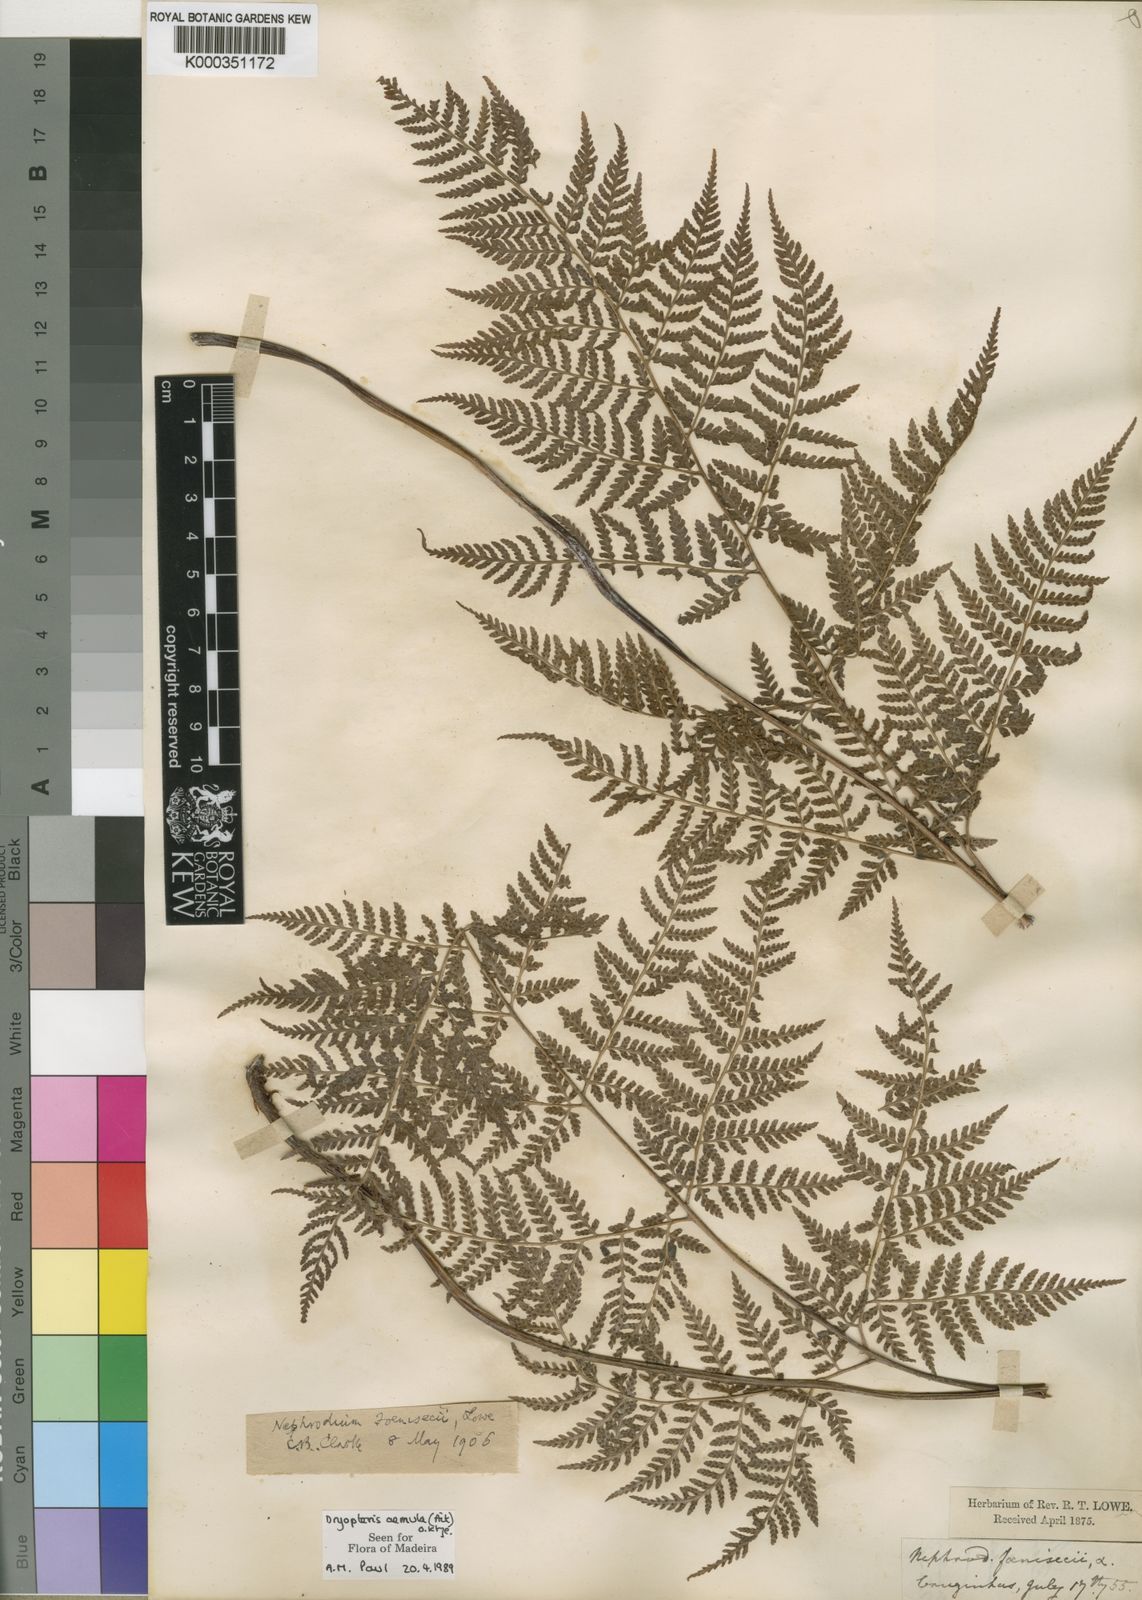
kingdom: Plantae
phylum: Tracheophyta
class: Polypodiopsida
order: Polypodiales
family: Dryopteridaceae
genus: Dryopteris
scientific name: Dryopteris aemula
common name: Hay-scented buckler-fern
